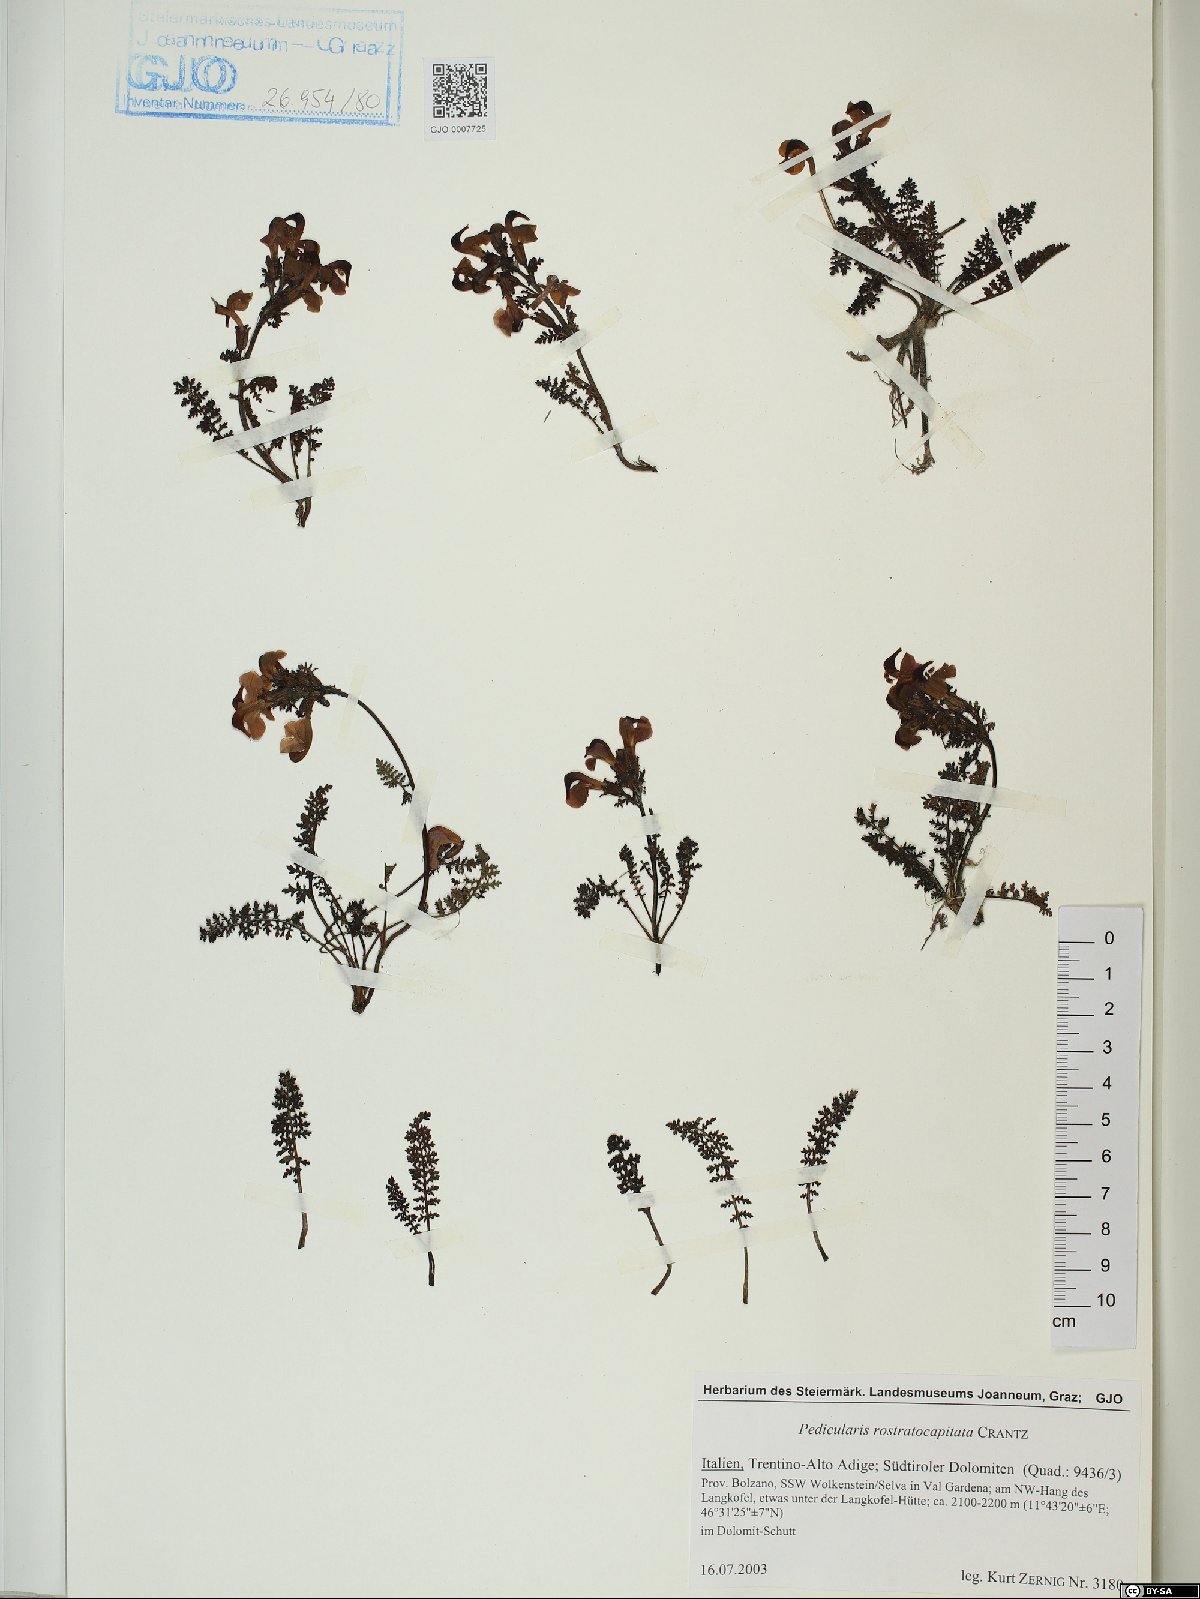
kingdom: Plantae
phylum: Tracheophyta
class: Magnoliopsida
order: Lamiales
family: Orobanchaceae
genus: Pedicularis
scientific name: Pedicularis rostratocapitata
